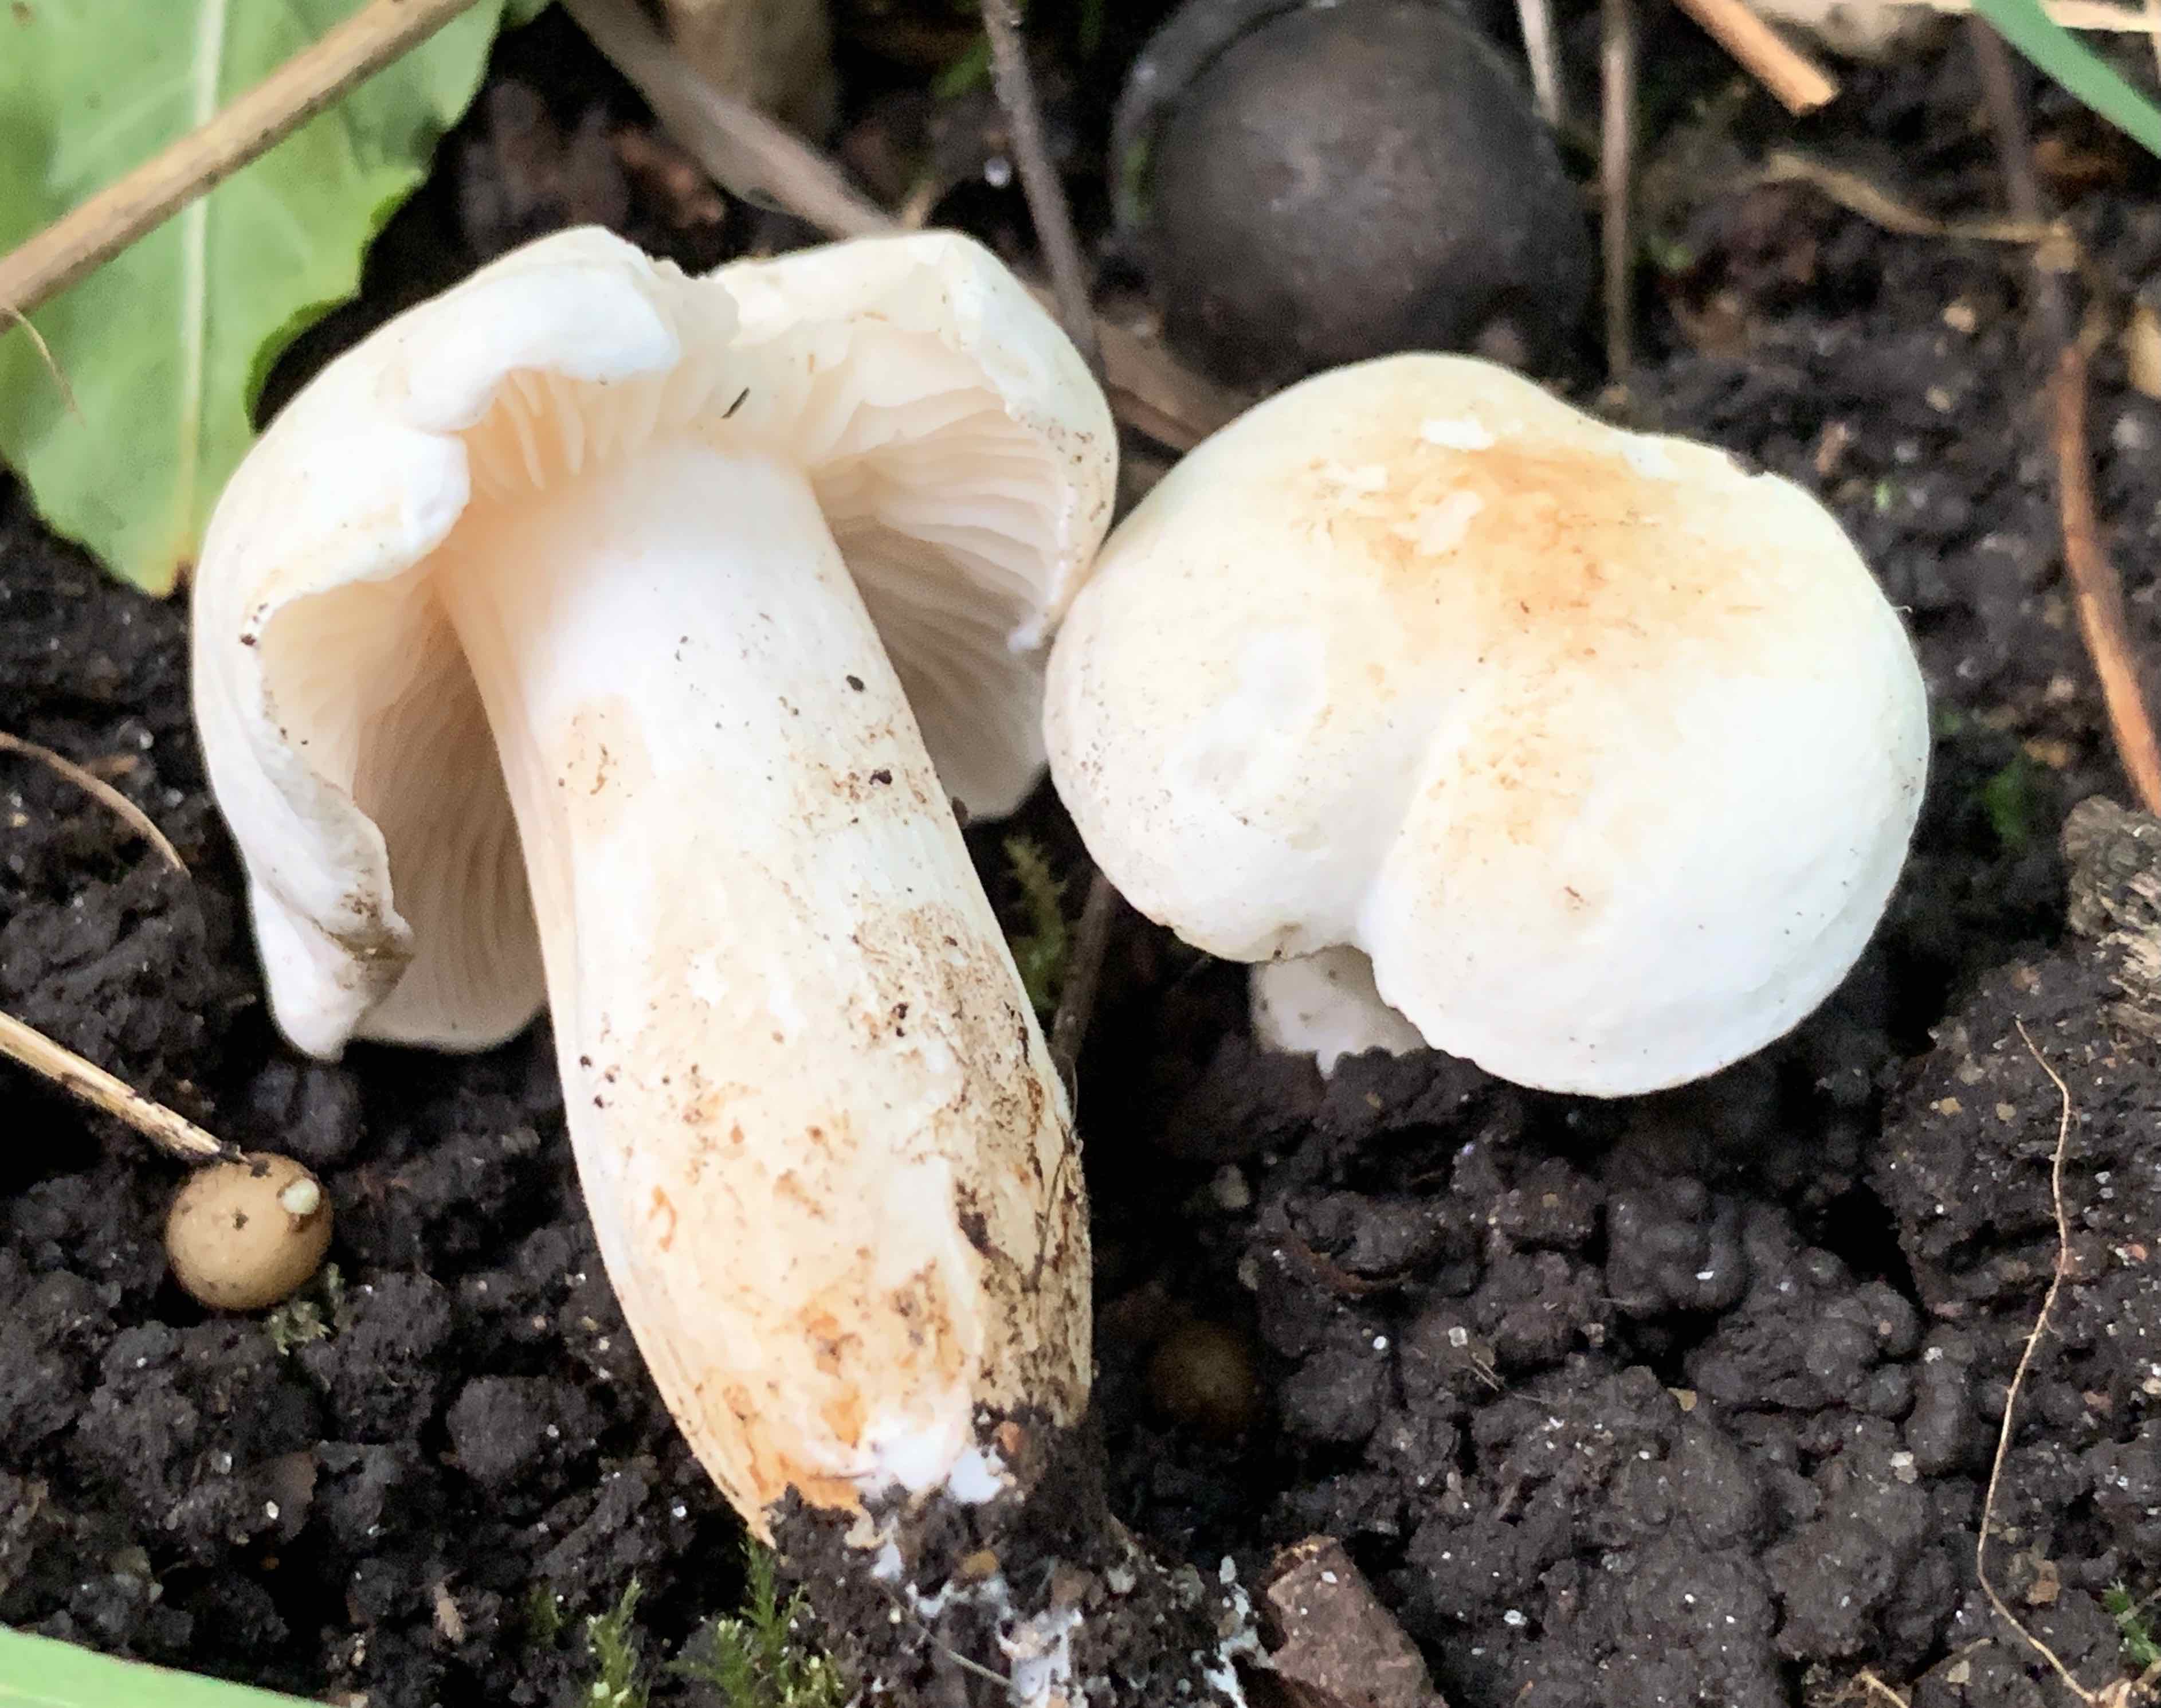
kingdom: Fungi
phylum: Basidiomycota
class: Agaricomycetes
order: Agaricales
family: Tricholomataceae
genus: Tricholoma
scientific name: Tricholoma album
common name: honning-ridderhat
